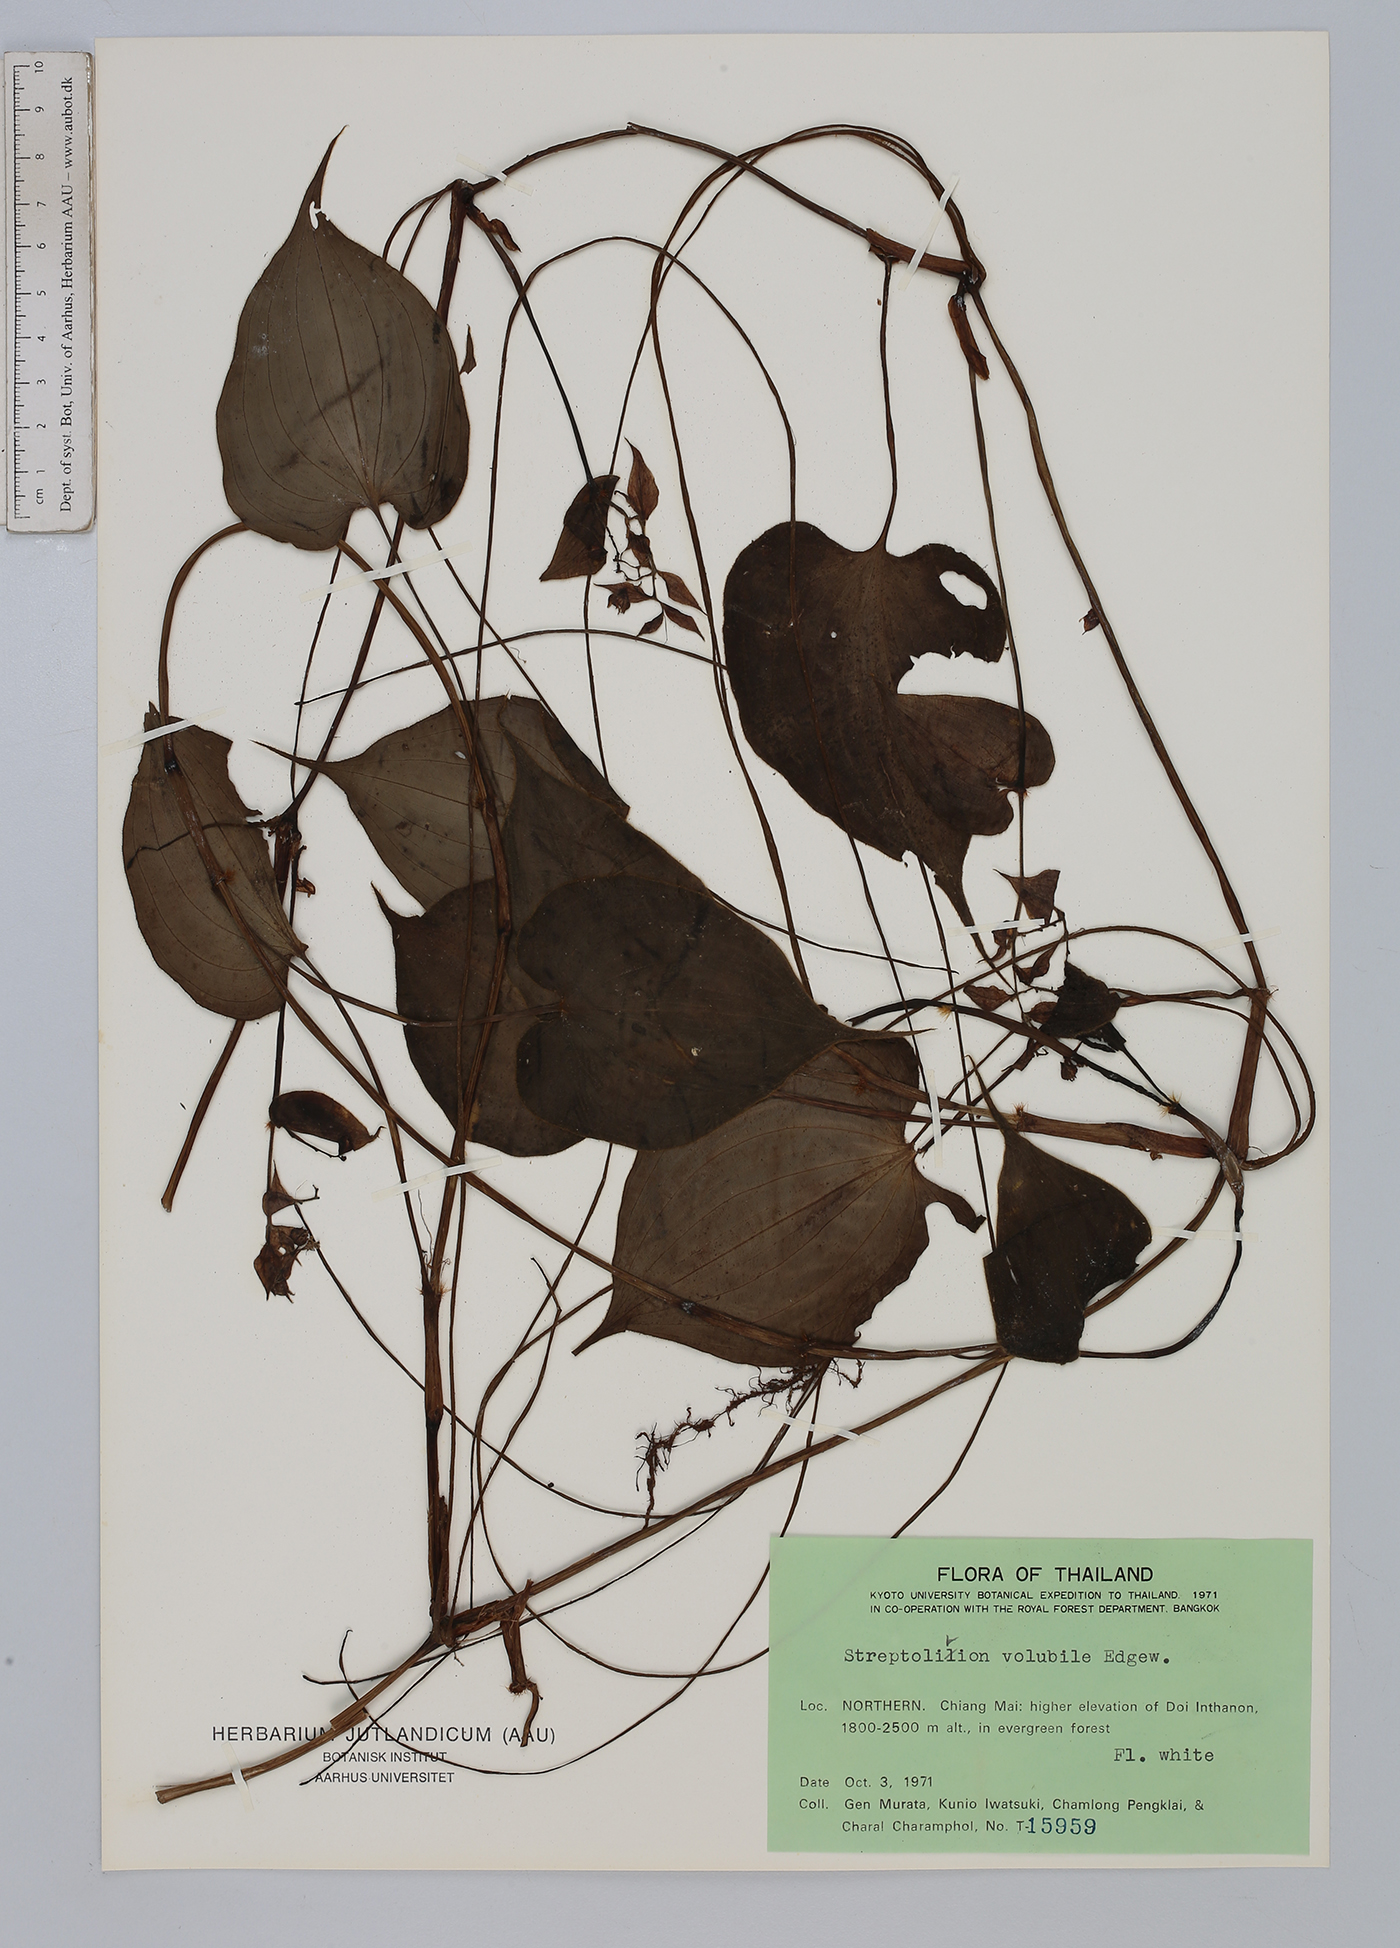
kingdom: Plantae
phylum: Tracheophyta
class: Liliopsida
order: Commelinales
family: Commelinaceae
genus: Streptolirion
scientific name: Streptolirion volubile
